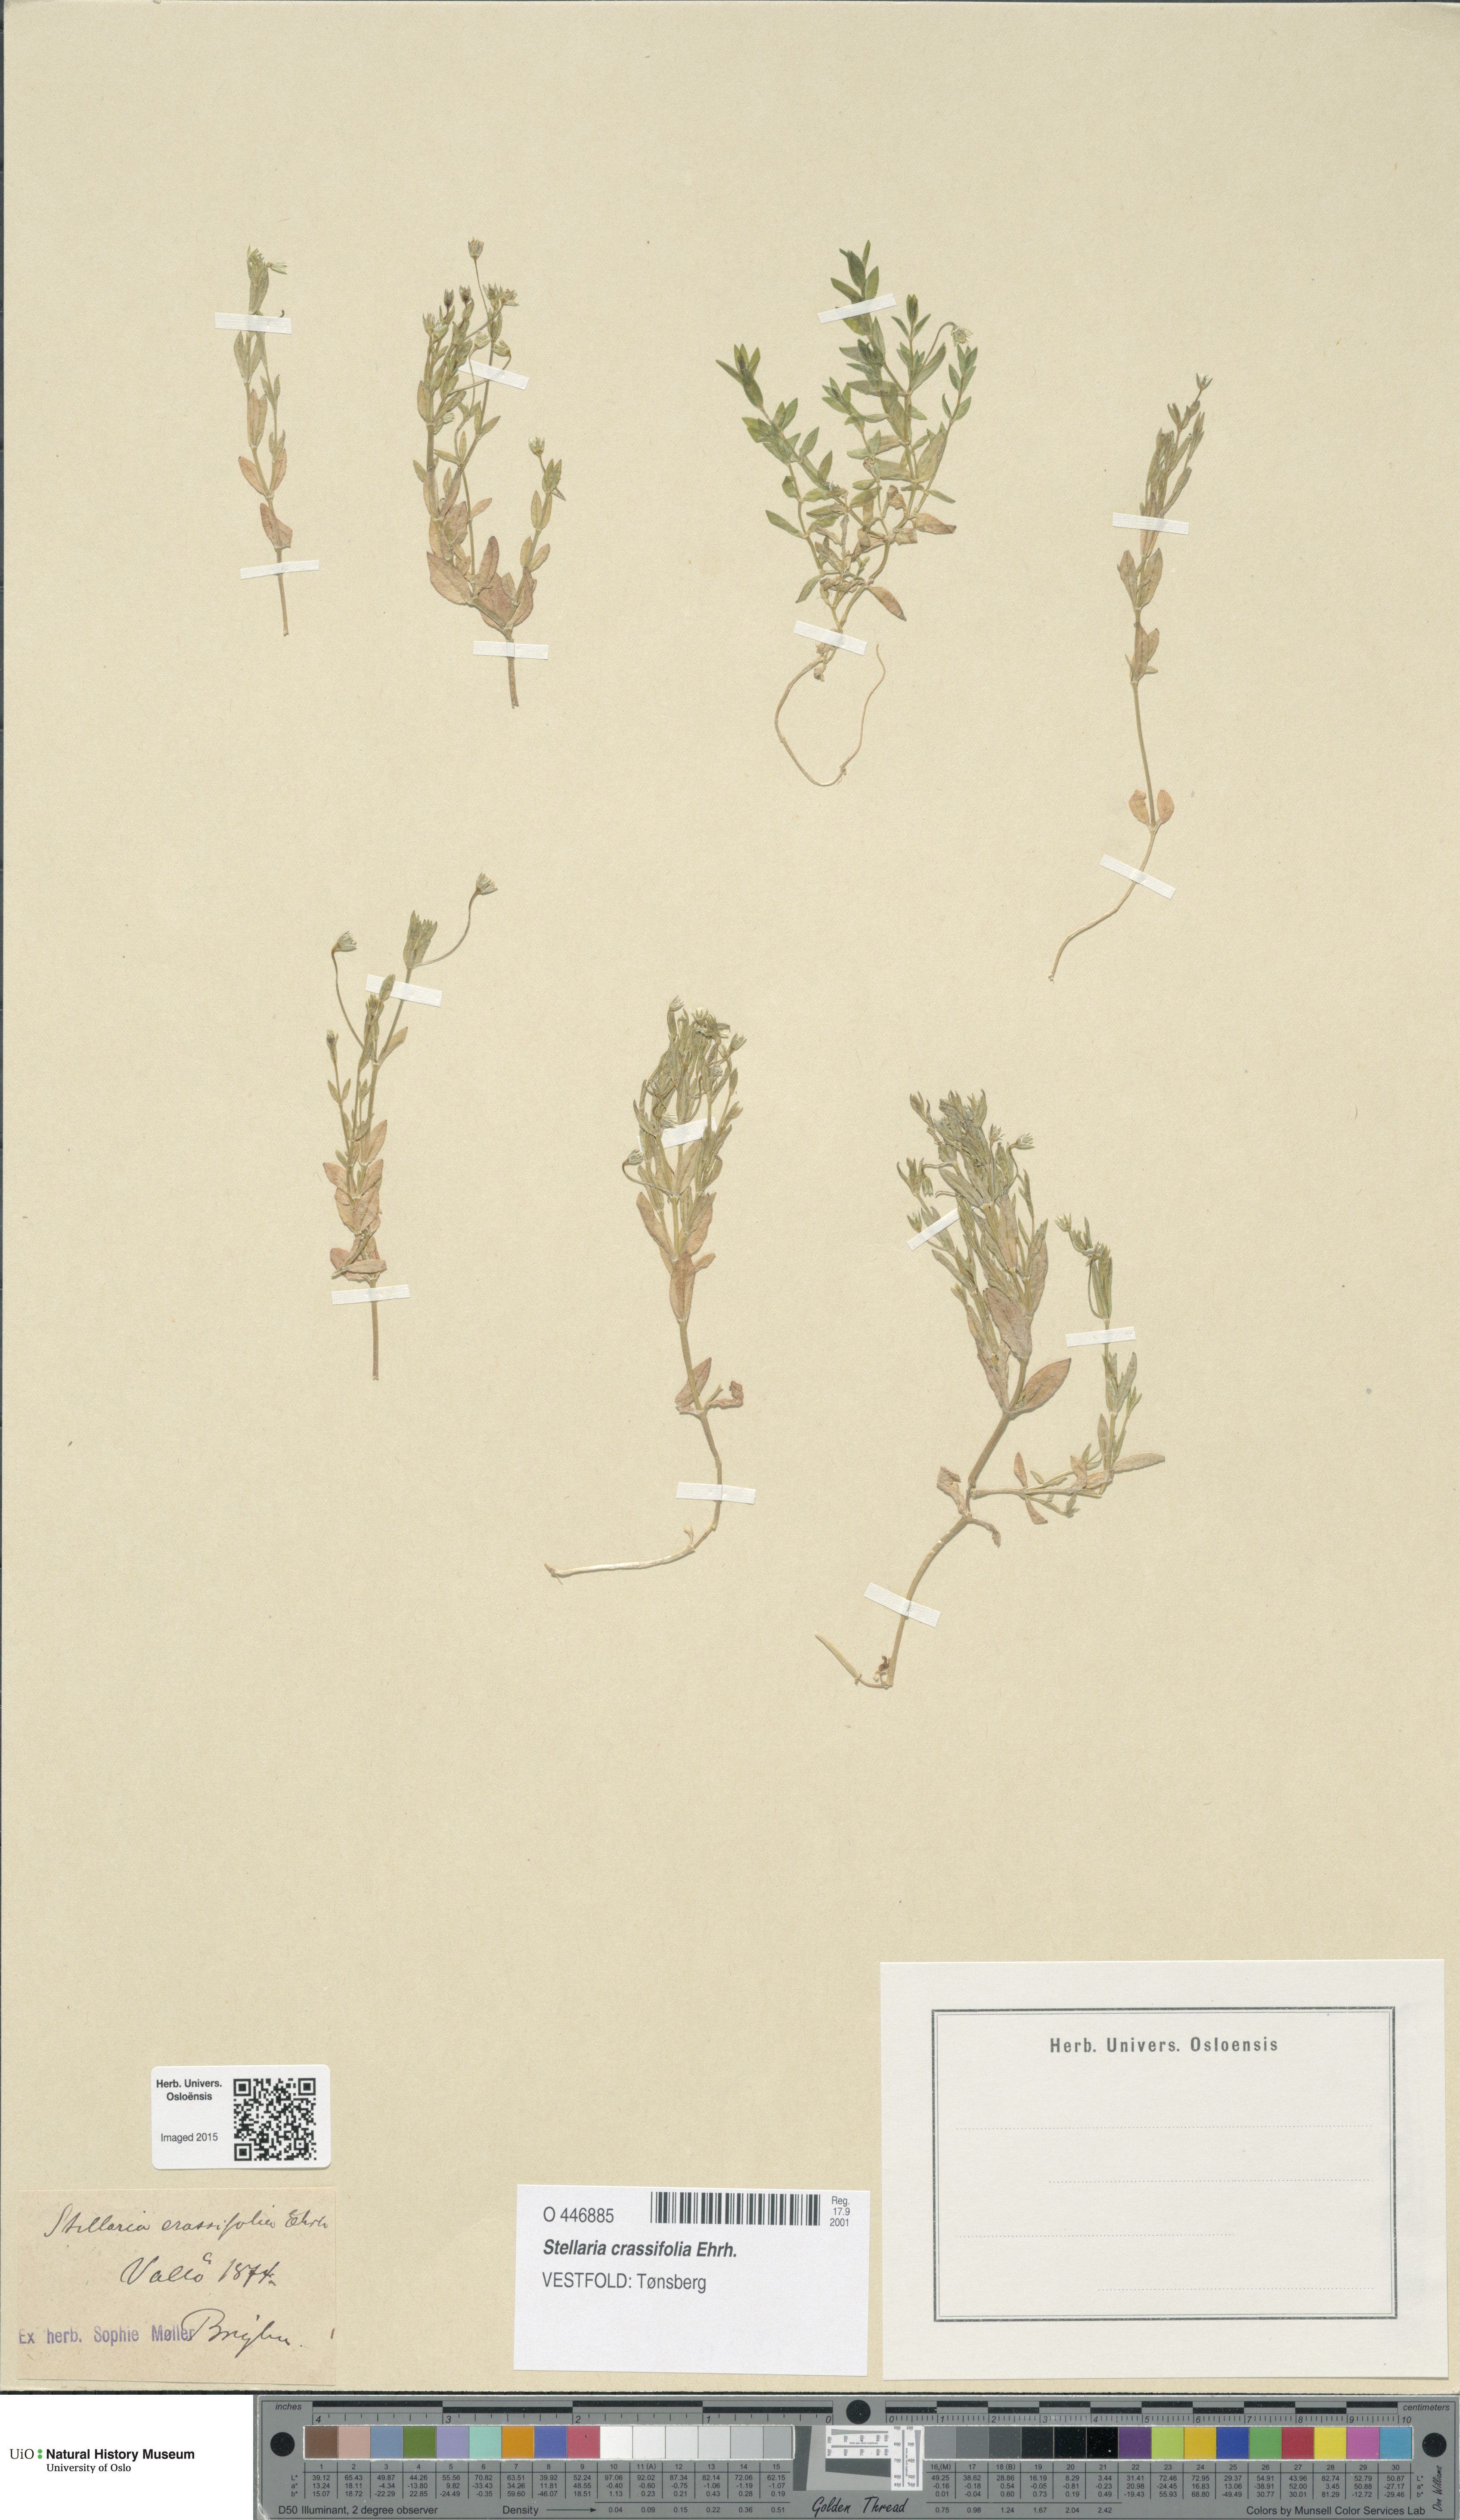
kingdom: Plantae
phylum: Tracheophyta
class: Magnoliopsida
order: Caryophyllales
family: Caryophyllaceae
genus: Stellaria
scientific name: Stellaria crassifolia
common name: Fleshy starwort
